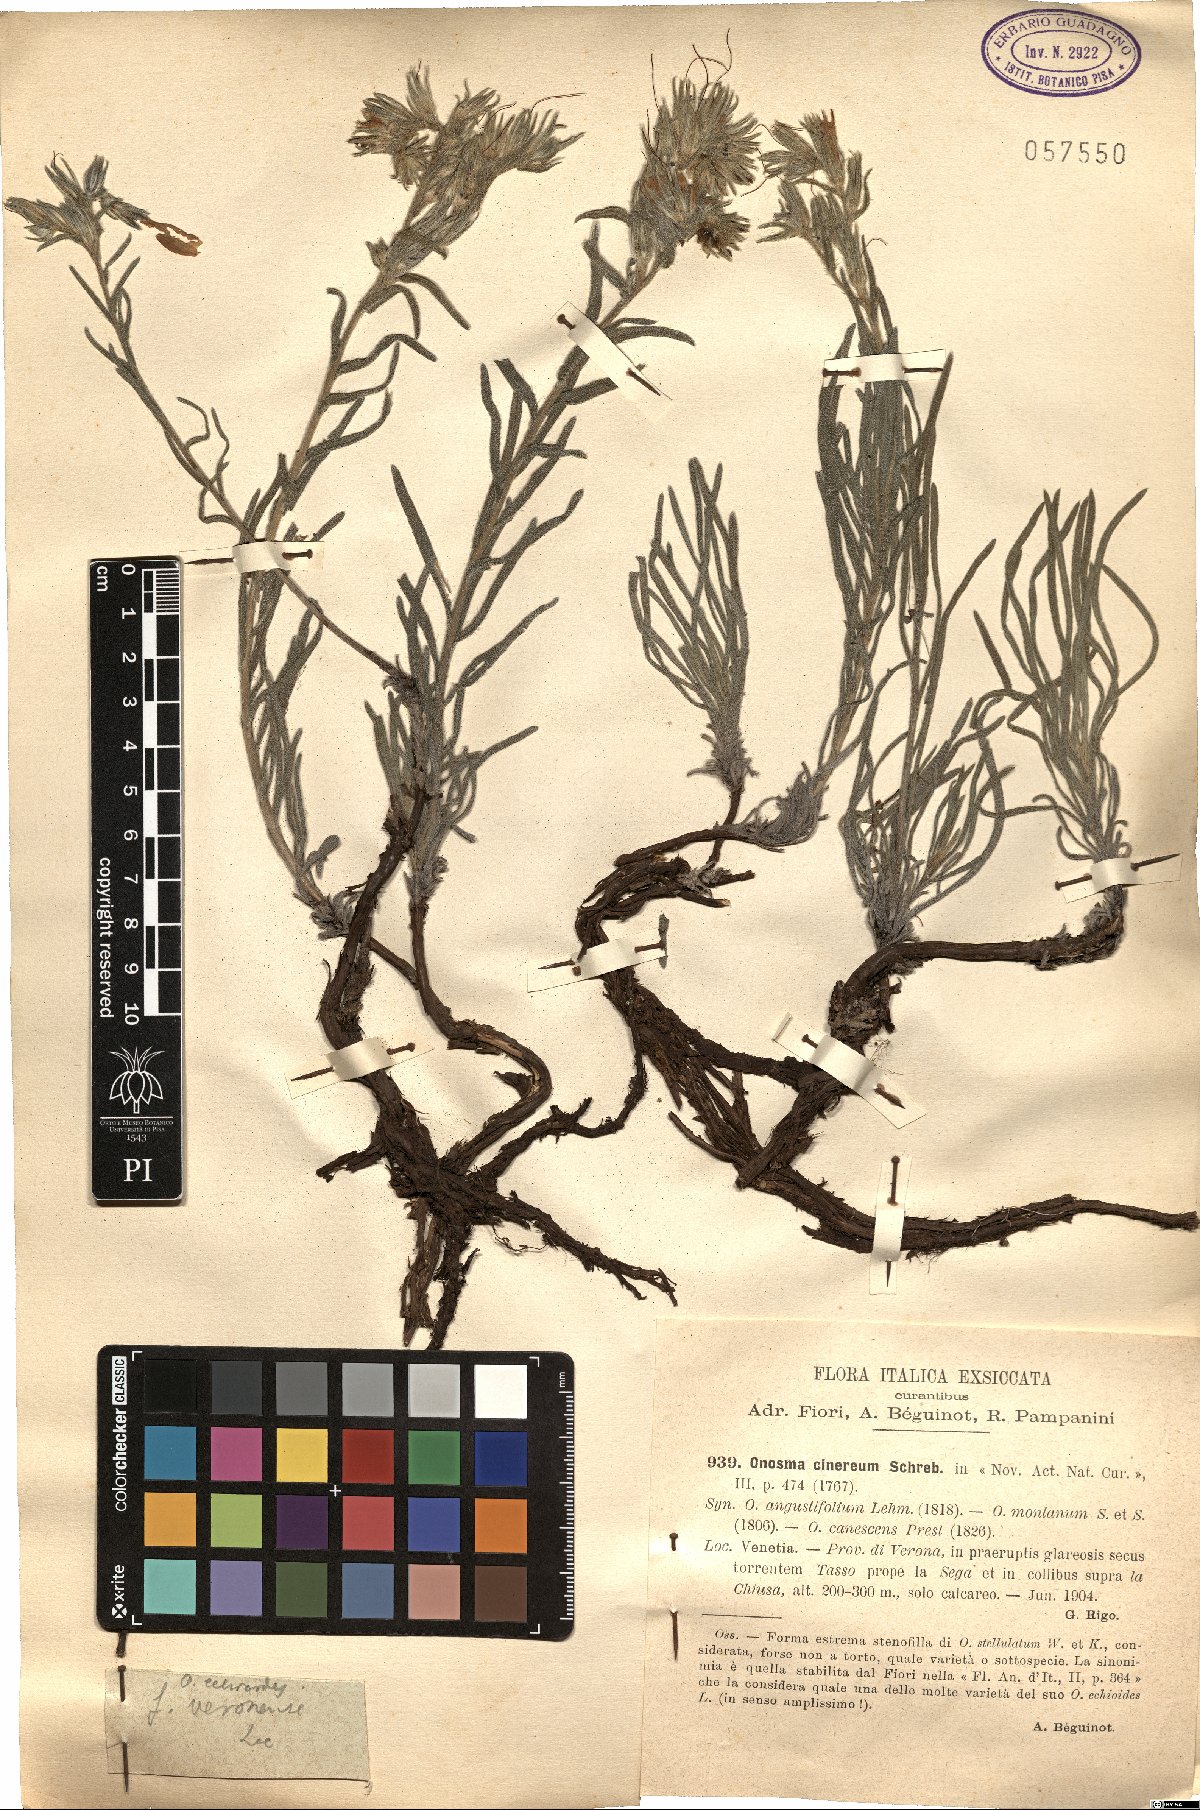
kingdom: Plantae
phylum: Tracheophyta
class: Magnoliopsida
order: Boraginales
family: Boraginaceae
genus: Onosma
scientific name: Onosma cinerea
